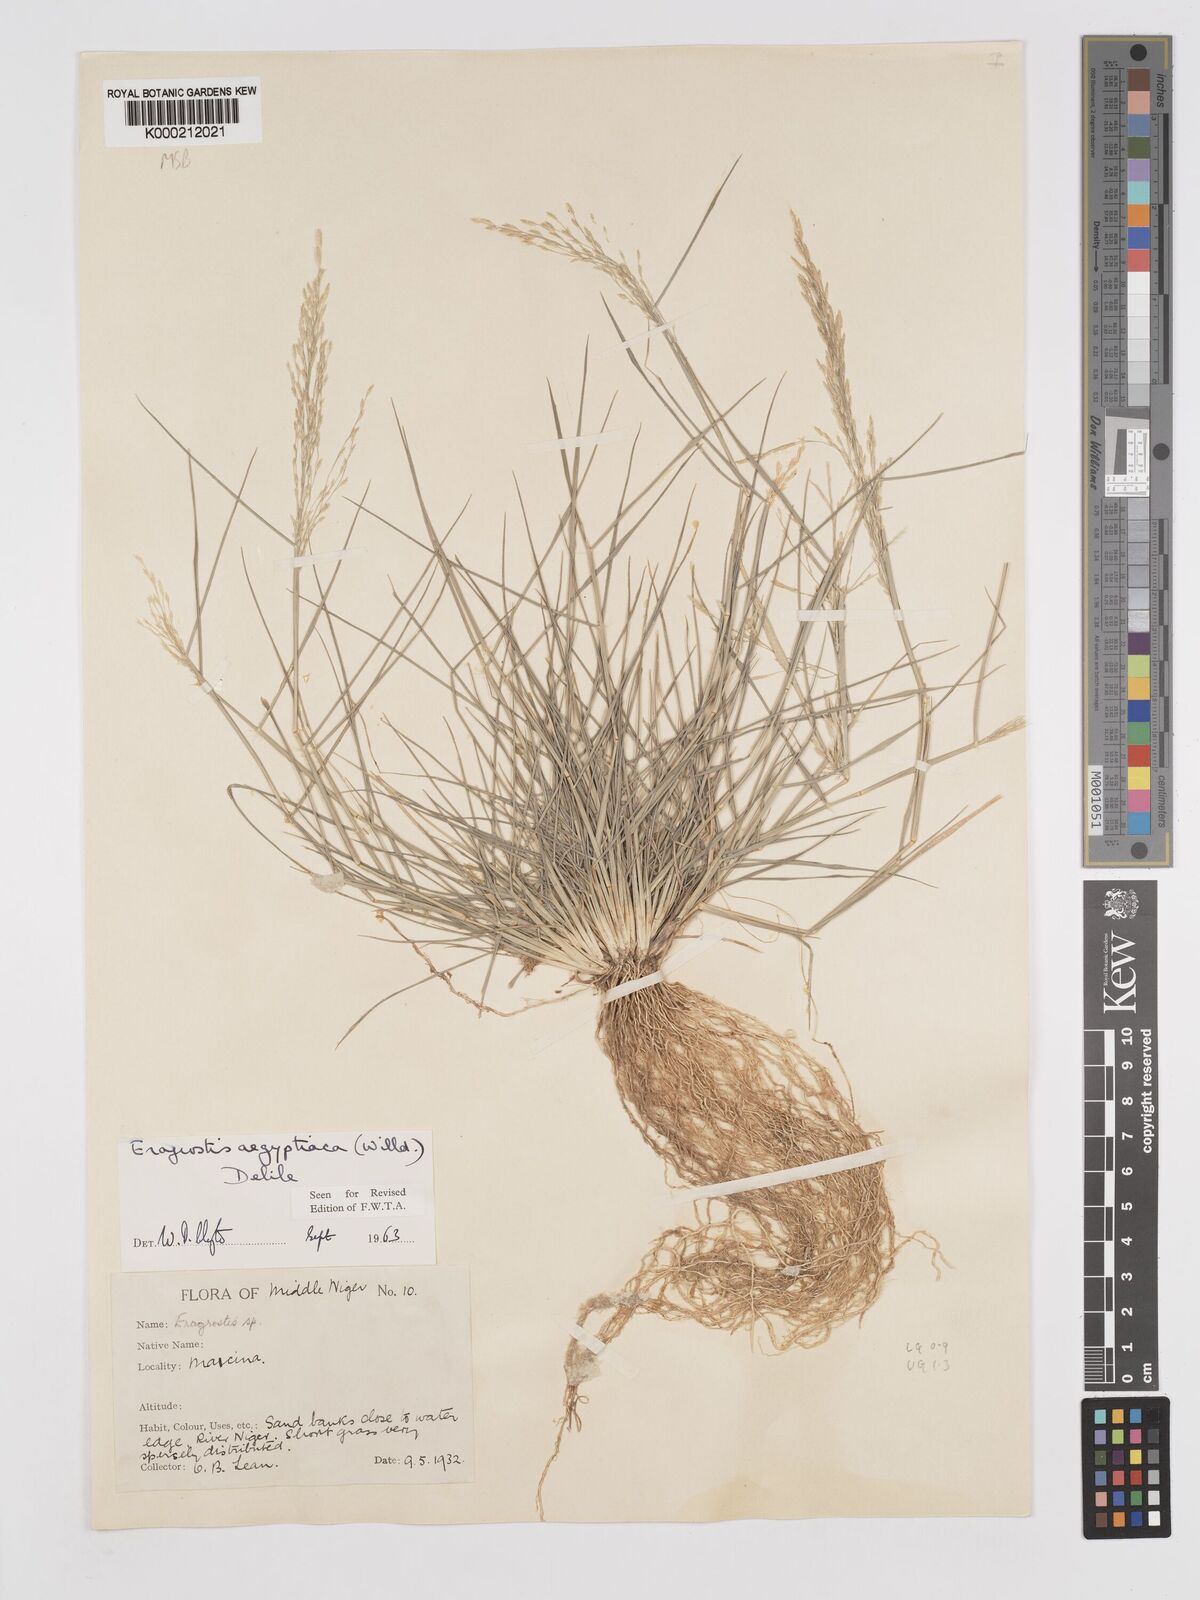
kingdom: Plantae
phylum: Tracheophyta
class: Liliopsida
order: Poales
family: Poaceae
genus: Eragrostis
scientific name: Eragrostis aegyptiaca
